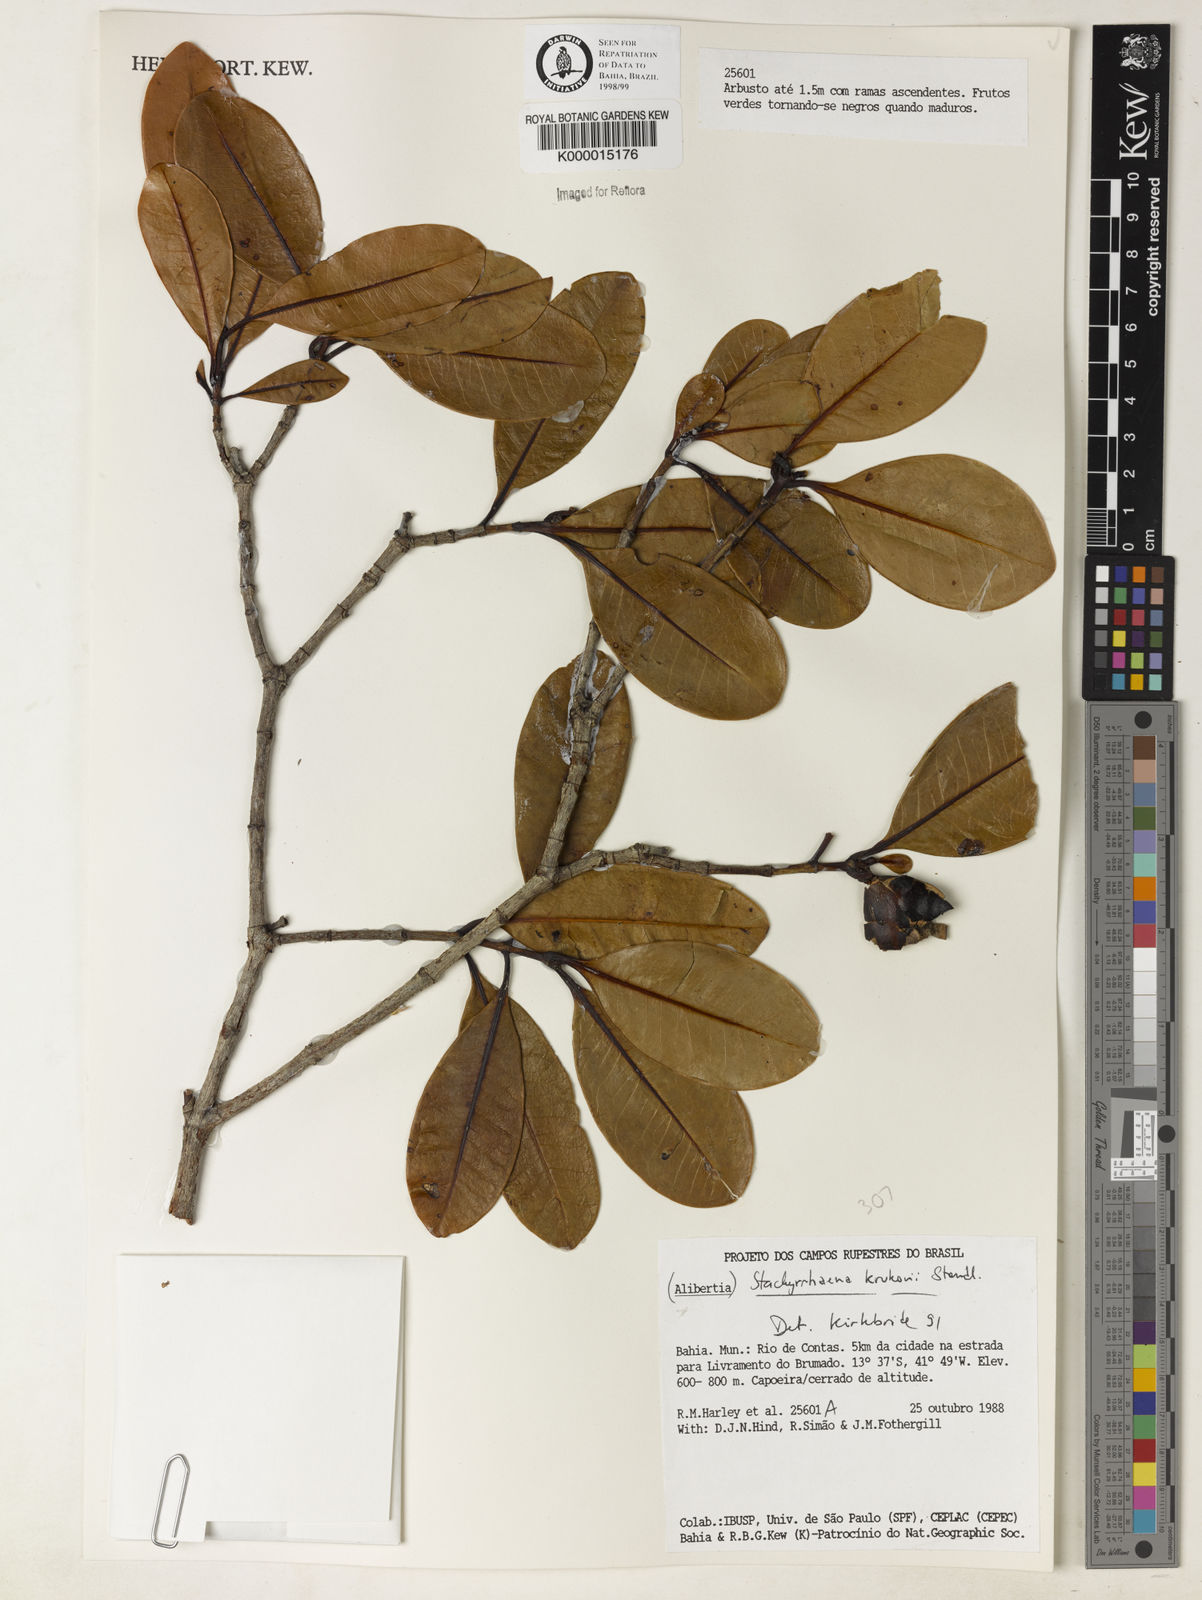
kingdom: Plantae
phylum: Tracheophyta
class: Magnoliopsida
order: Gentianales
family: Rubiaceae
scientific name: Rubiaceae
